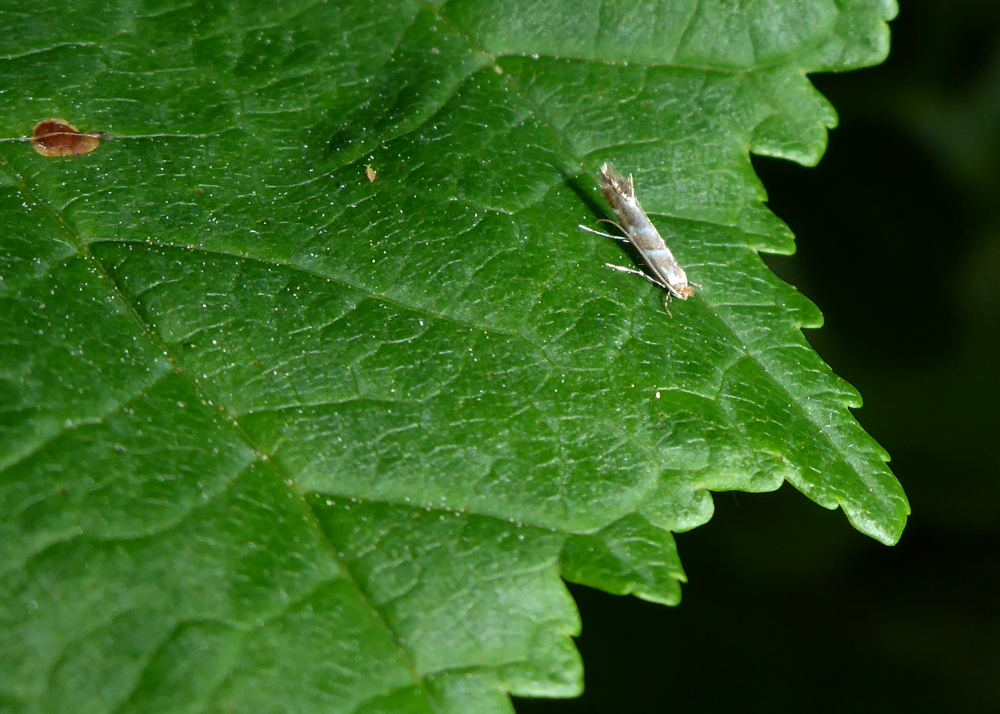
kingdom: Animalia
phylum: Arthropoda
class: Insecta
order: Lepidoptera
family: Gracillariidae
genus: Cameraria
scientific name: Cameraria ohridella
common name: Horse-chestnut leaf-miner
